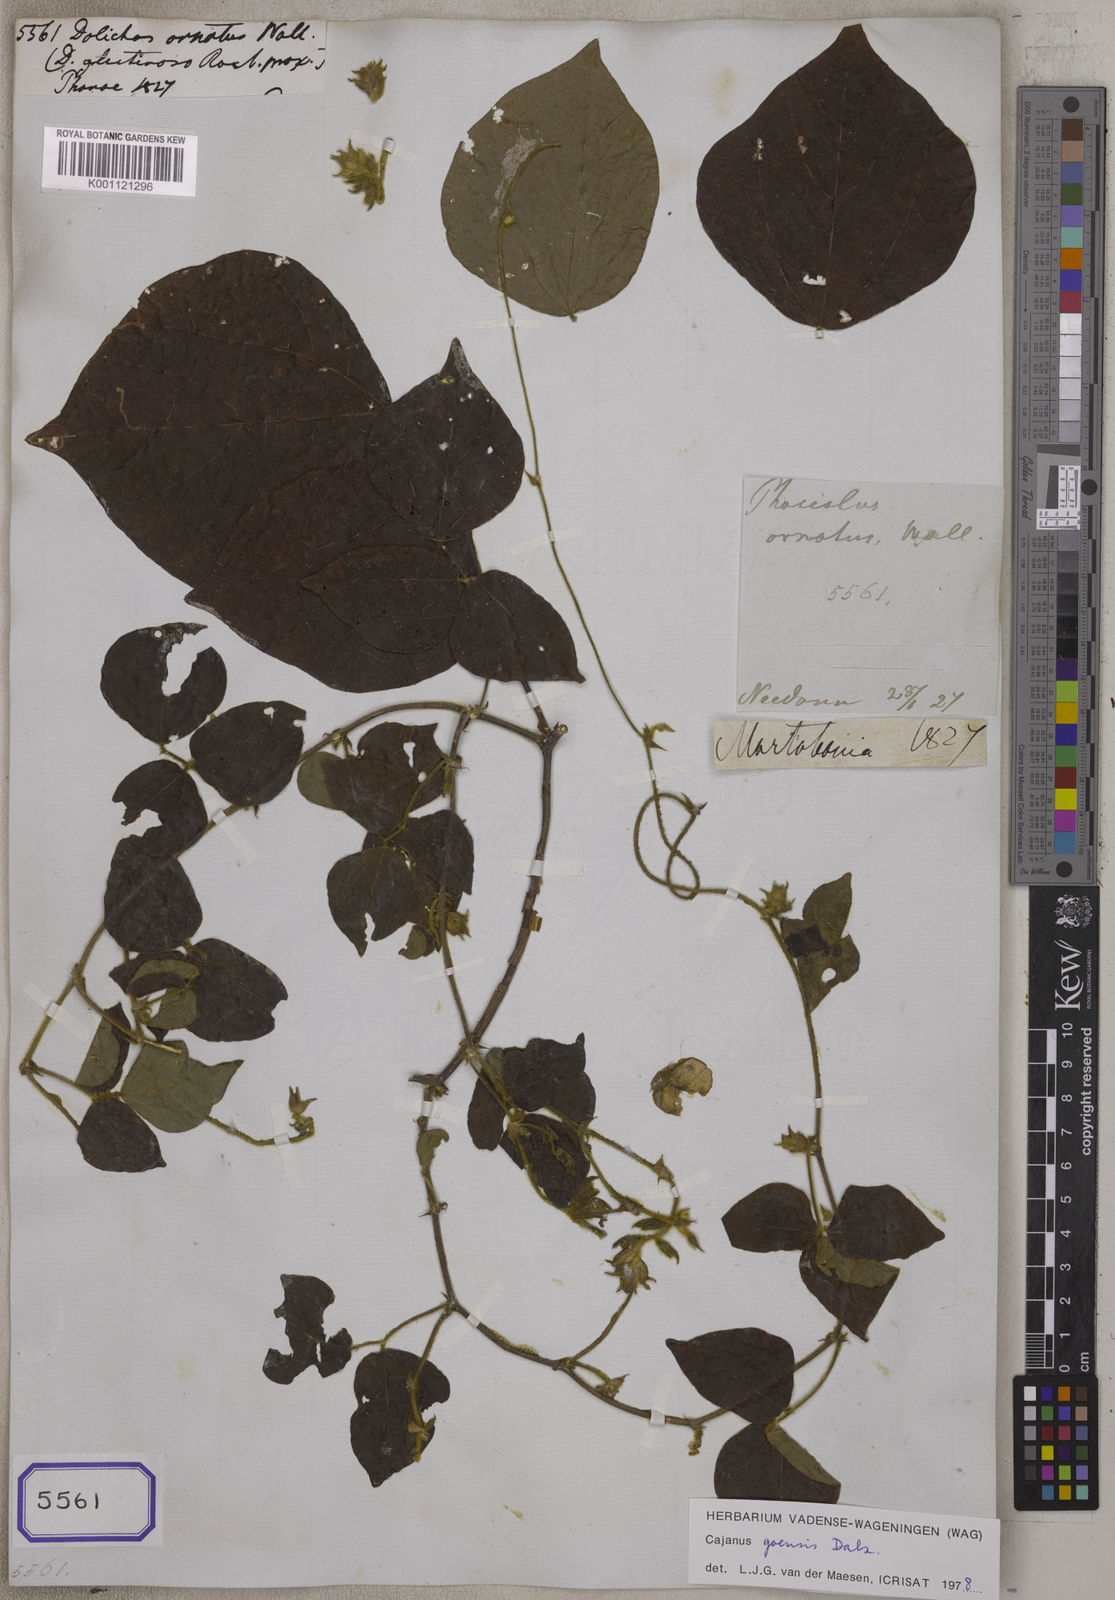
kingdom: Plantae
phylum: Tracheophyta
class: Magnoliopsida
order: Fabales
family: Fabaceae
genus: Cajanus
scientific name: Cajanus goensis
